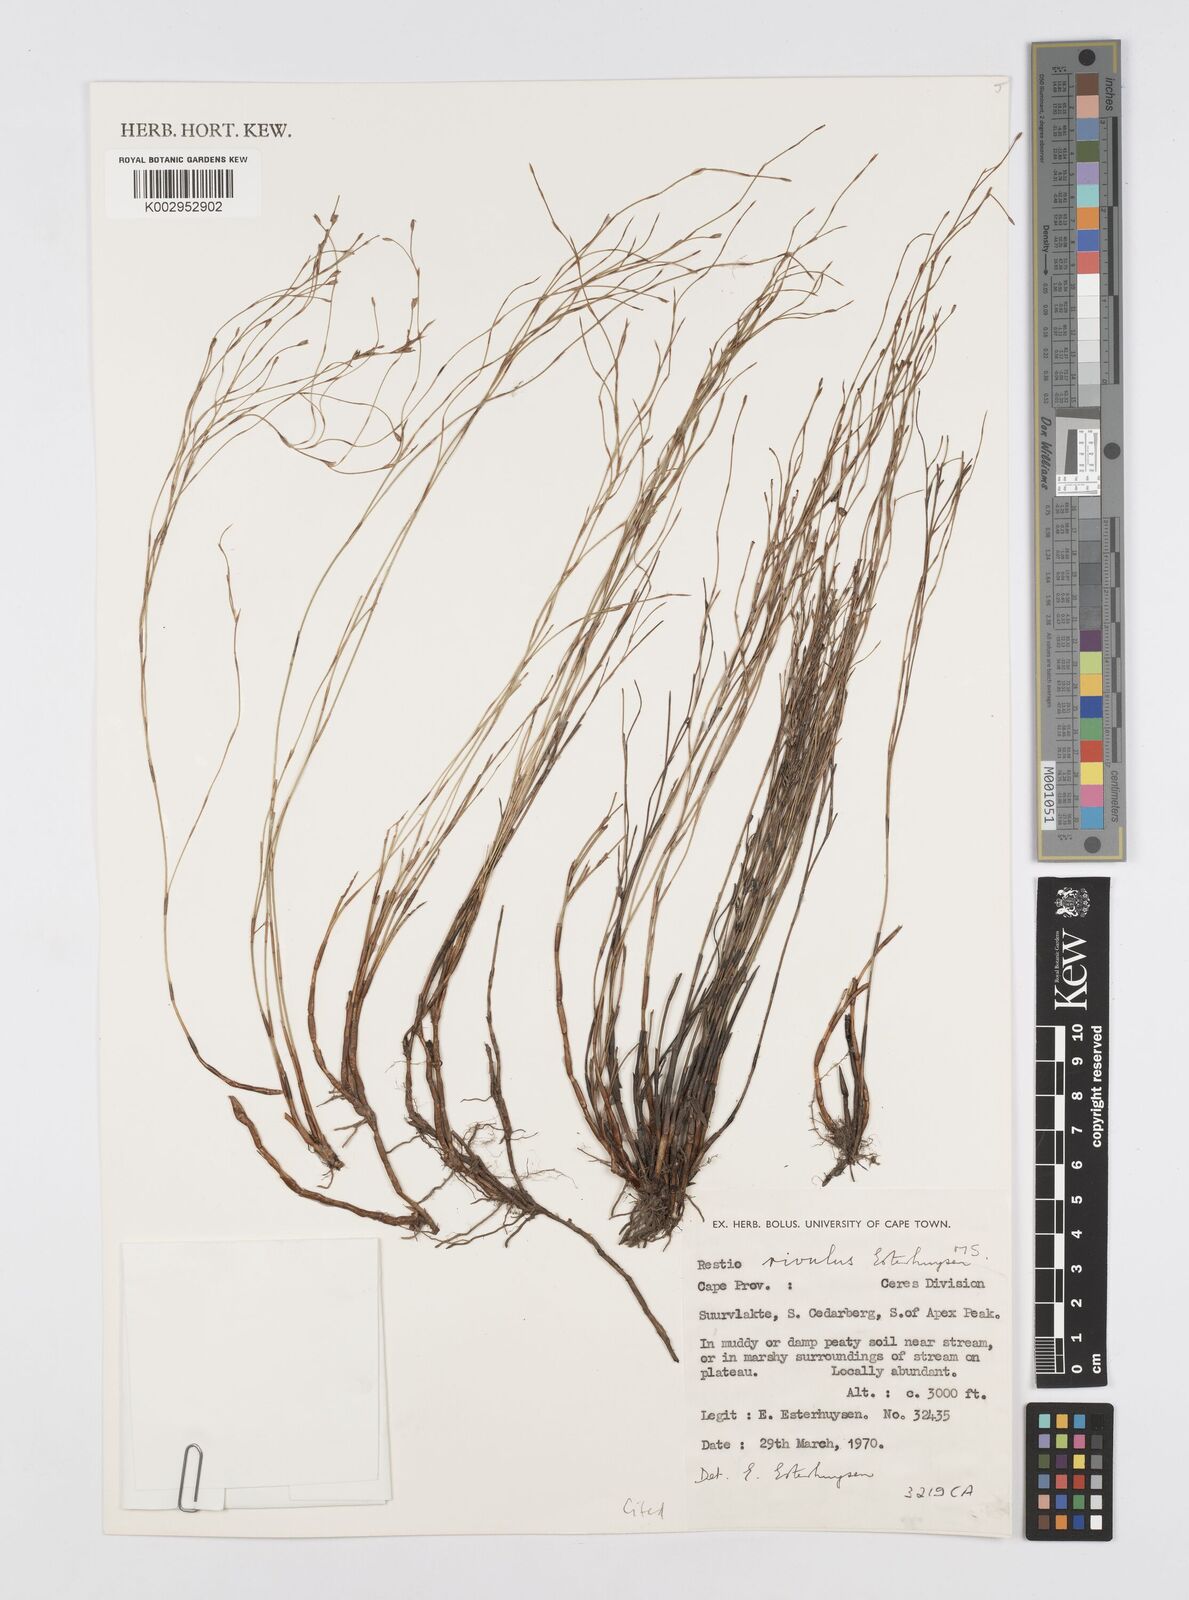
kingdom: Plantae
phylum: Tracheophyta
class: Liliopsida
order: Poales
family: Restionaceae
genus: Restio
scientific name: Restio rivulus
